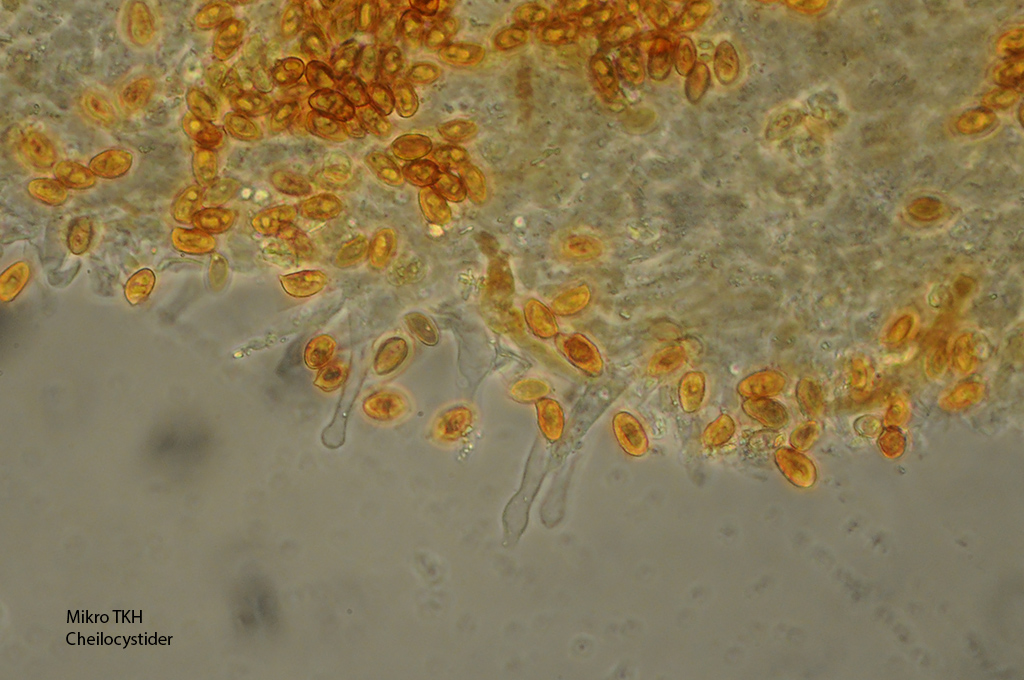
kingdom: Fungi
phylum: Basidiomycota
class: Agaricomycetes
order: Agaricales
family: Hymenogastraceae
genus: Galerina
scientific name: Galerina marginata
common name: randbæltet hjelmhat
